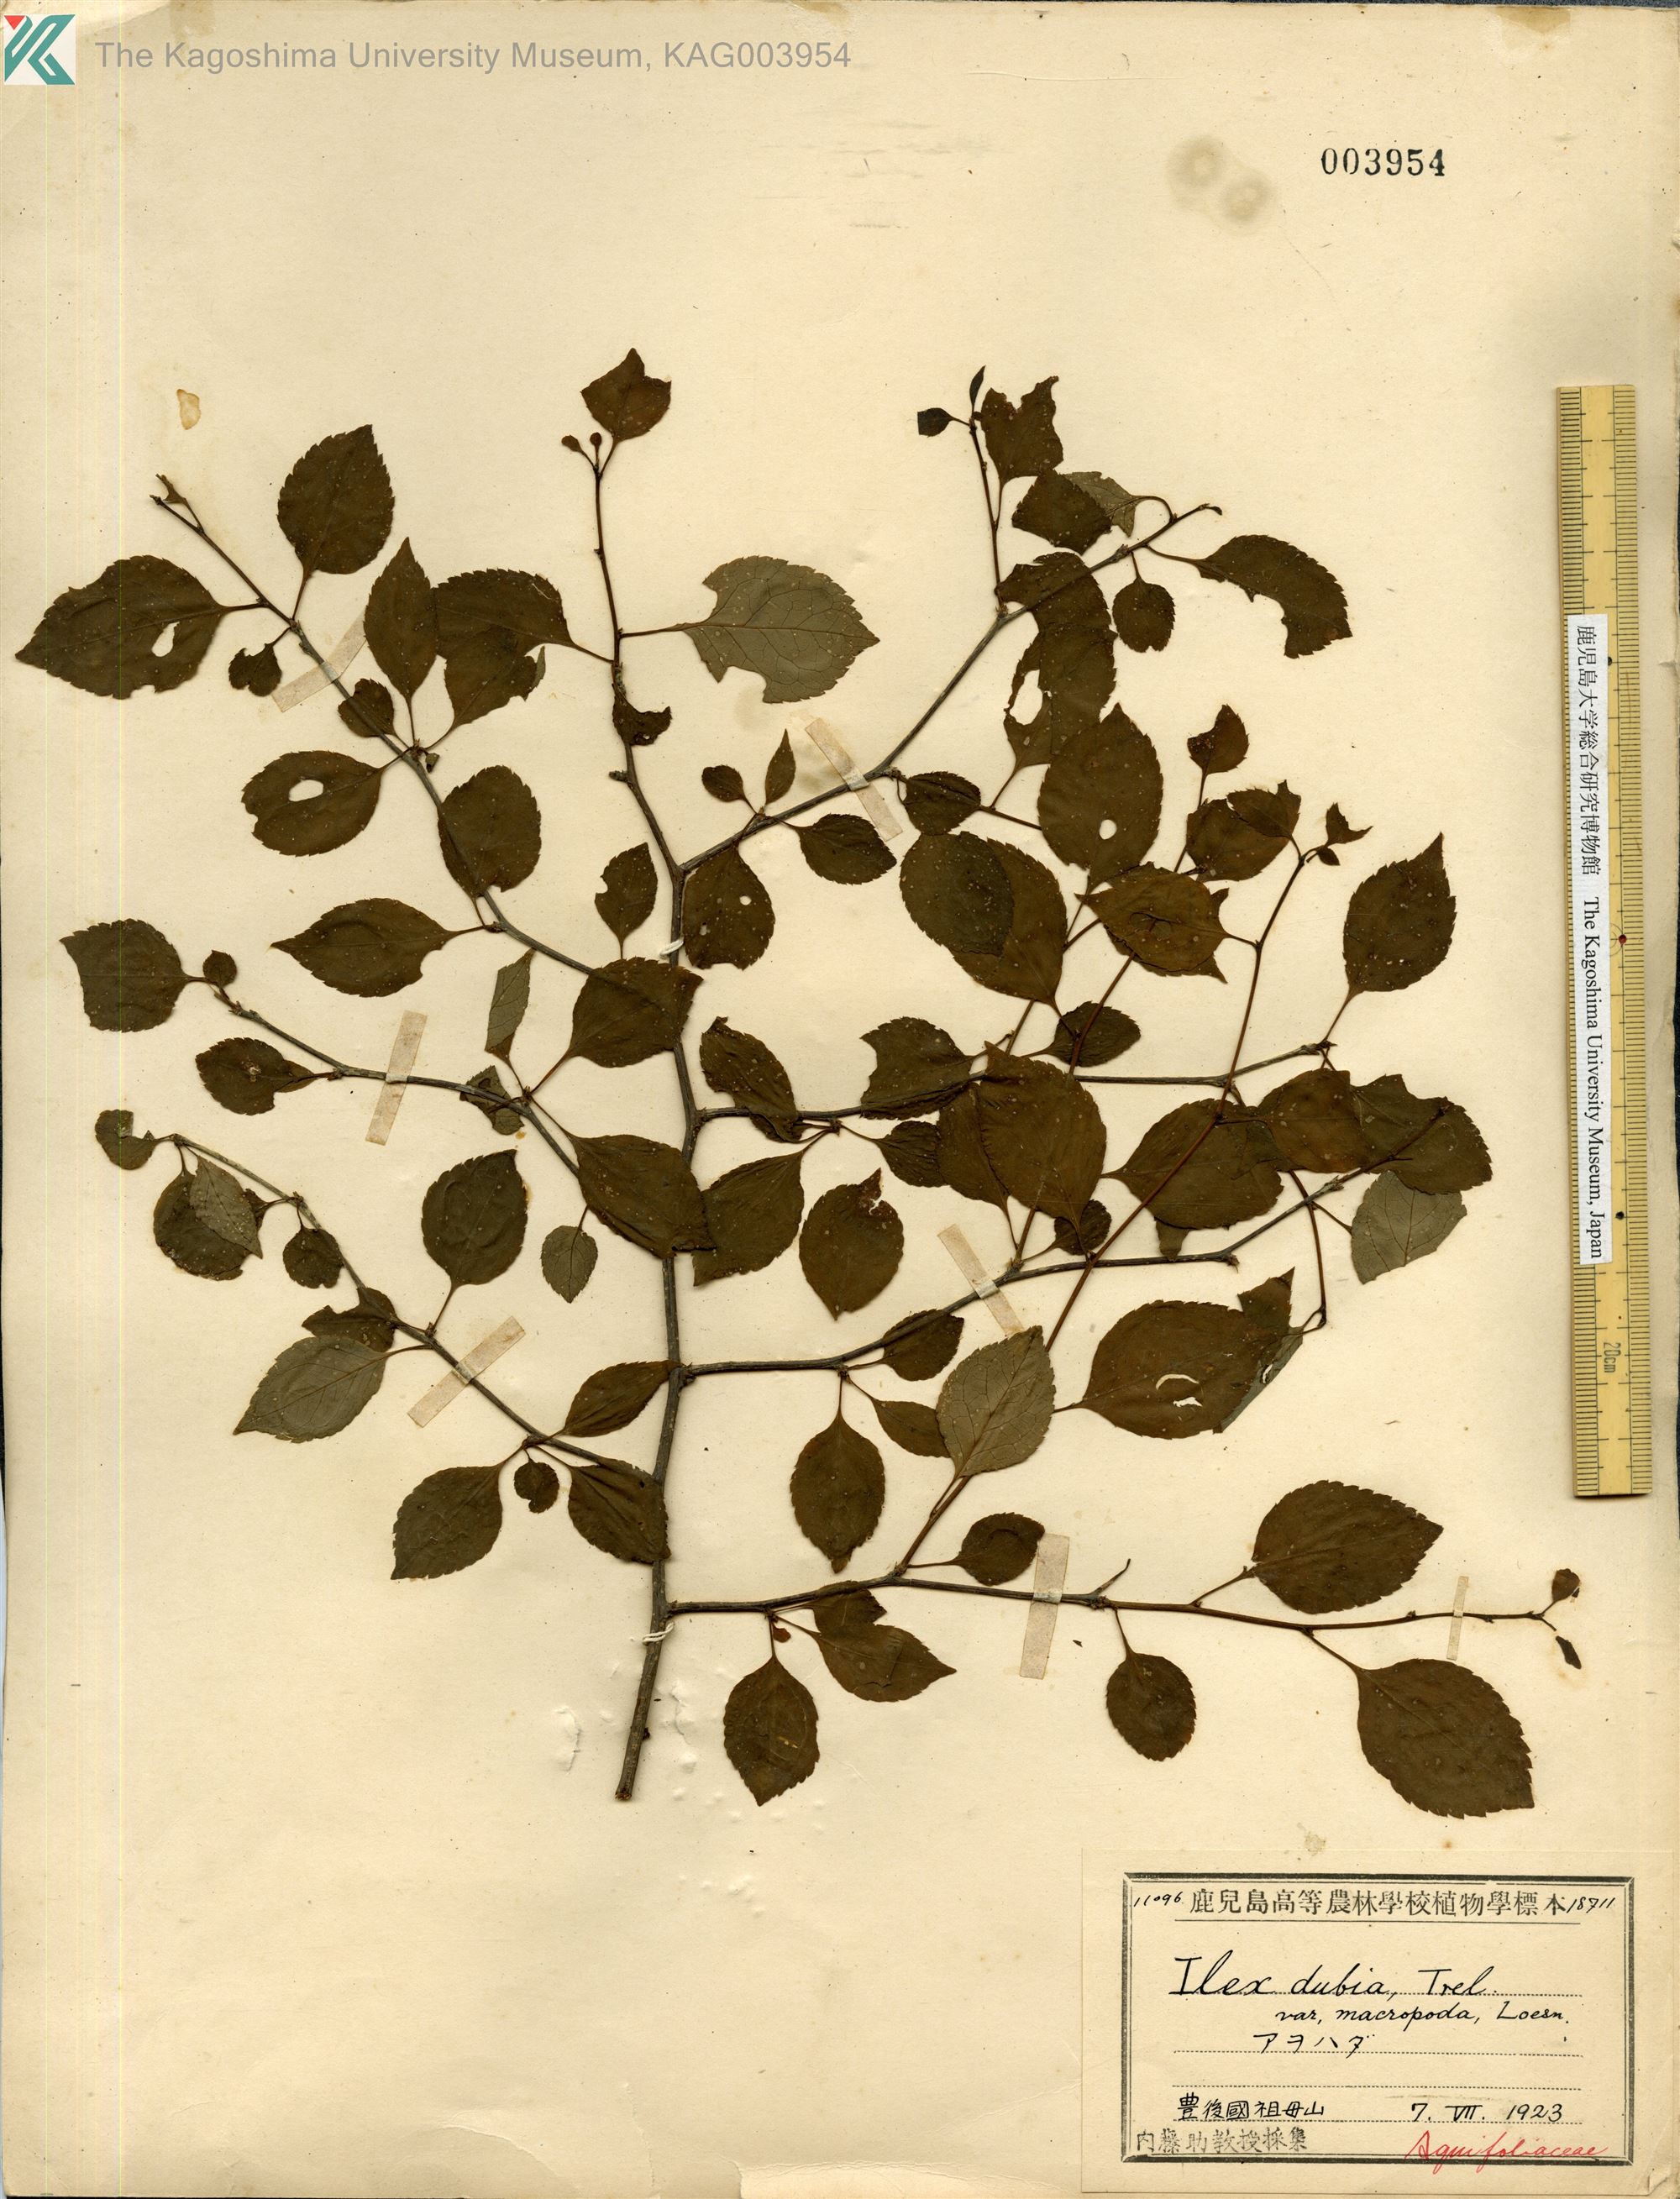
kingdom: Plantae
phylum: Tracheophyta
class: Magnoliopsida
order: Aquifoliales
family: Aquifoliaceae
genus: Ilex
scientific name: Ilex macropoda
